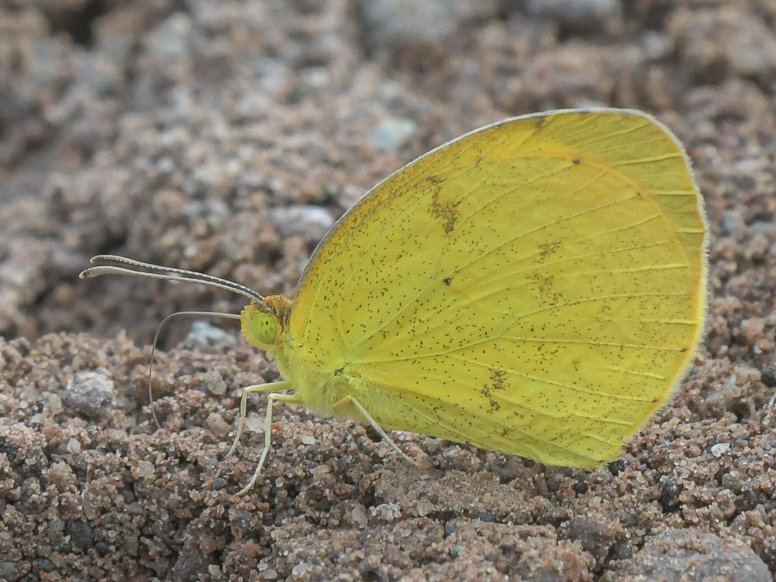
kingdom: Animalia
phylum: Arthropoda
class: Insecta
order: Lepidoptera
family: Pieridae
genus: Pyrisitia
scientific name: Pyrisitia nise
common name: Mimosa Yellow
